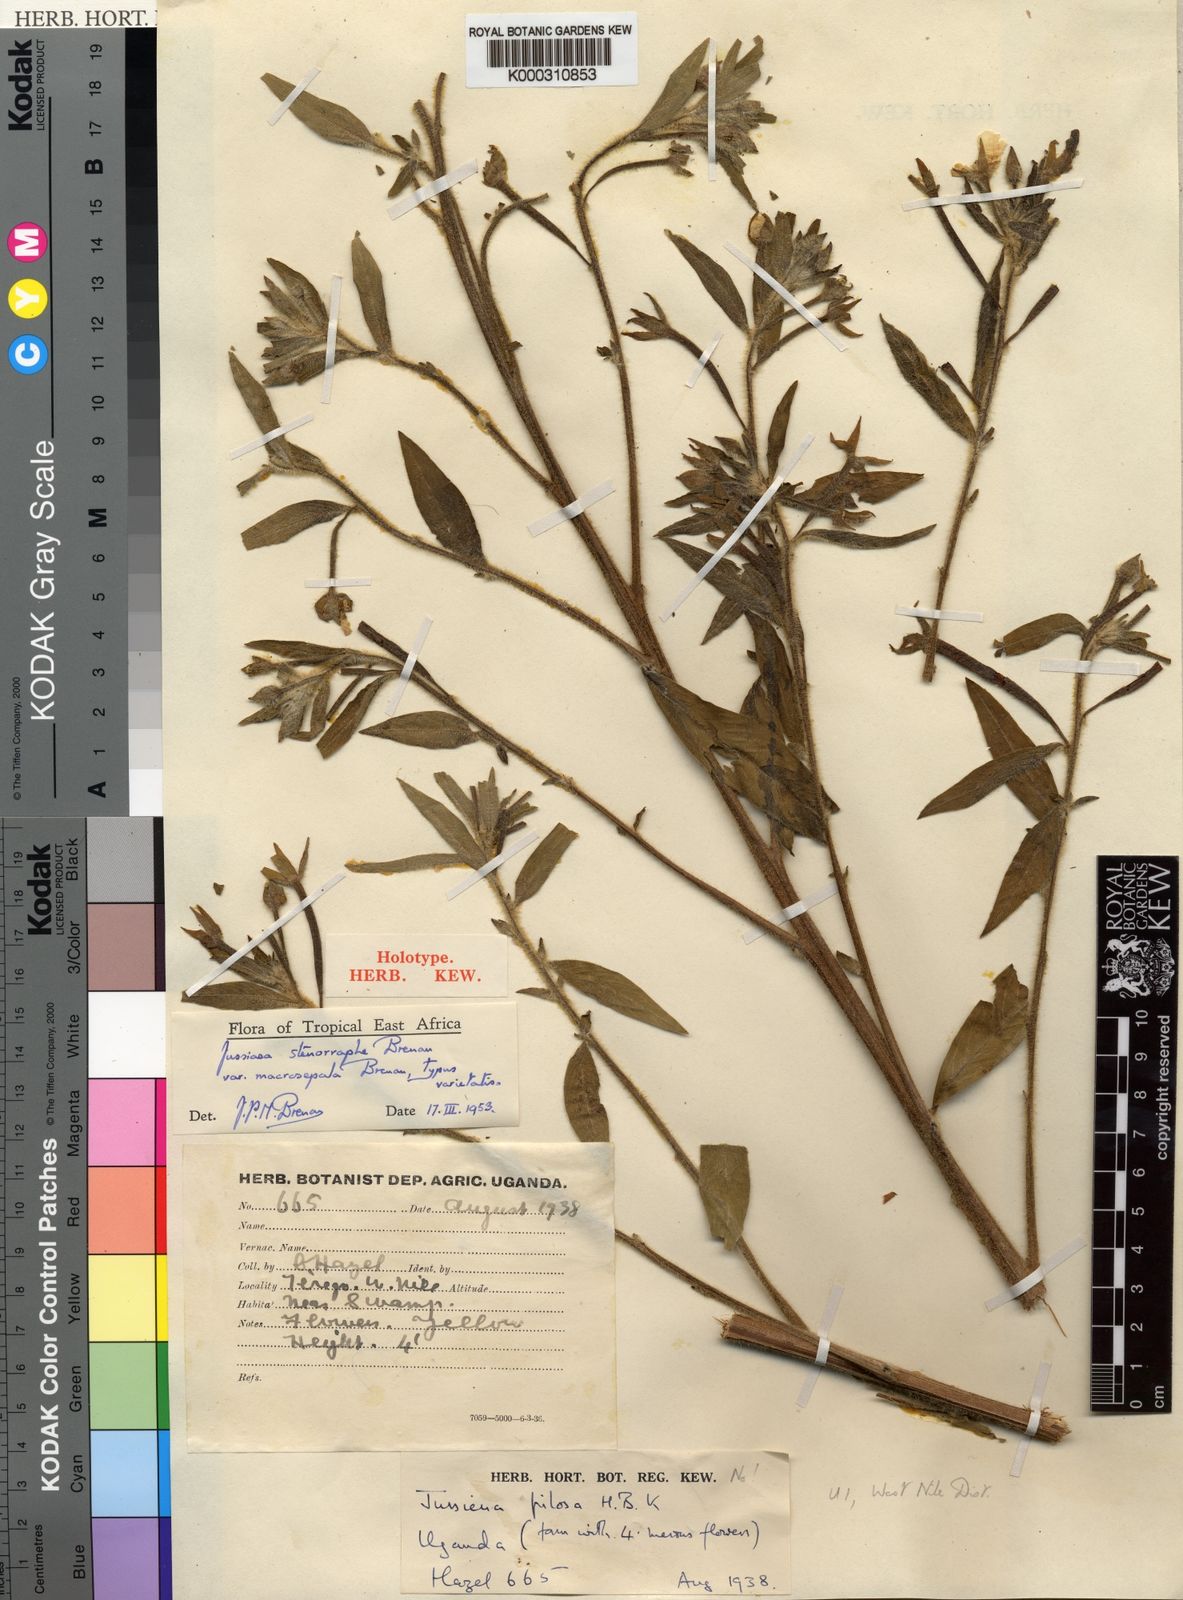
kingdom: Plantae
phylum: Tracheophyta
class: Magnoliopsida
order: Myrtales
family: Onagraceae
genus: Ludwigia
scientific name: Ludwigia stenorraphe
